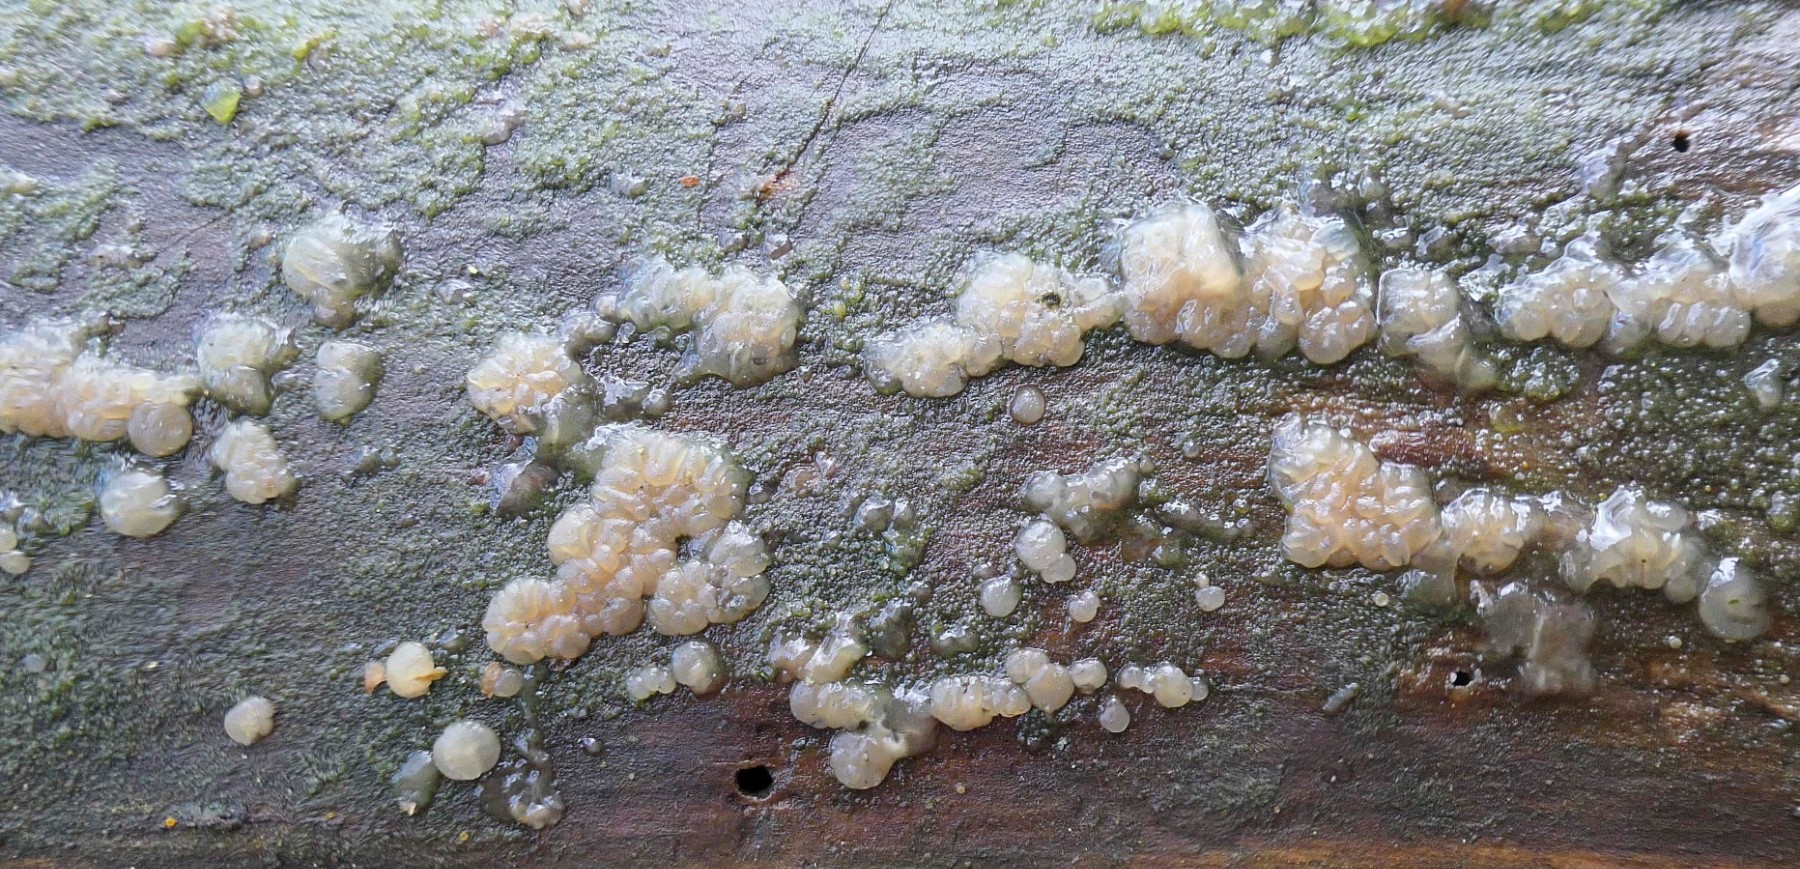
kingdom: Fungi
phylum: Basidiomycota
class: Dacrymycetes
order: Dacrymycetales
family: Dacryonaemataceae
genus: Dacryonaema
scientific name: Dacryonaema macnabbii
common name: navle-tåresvamp
